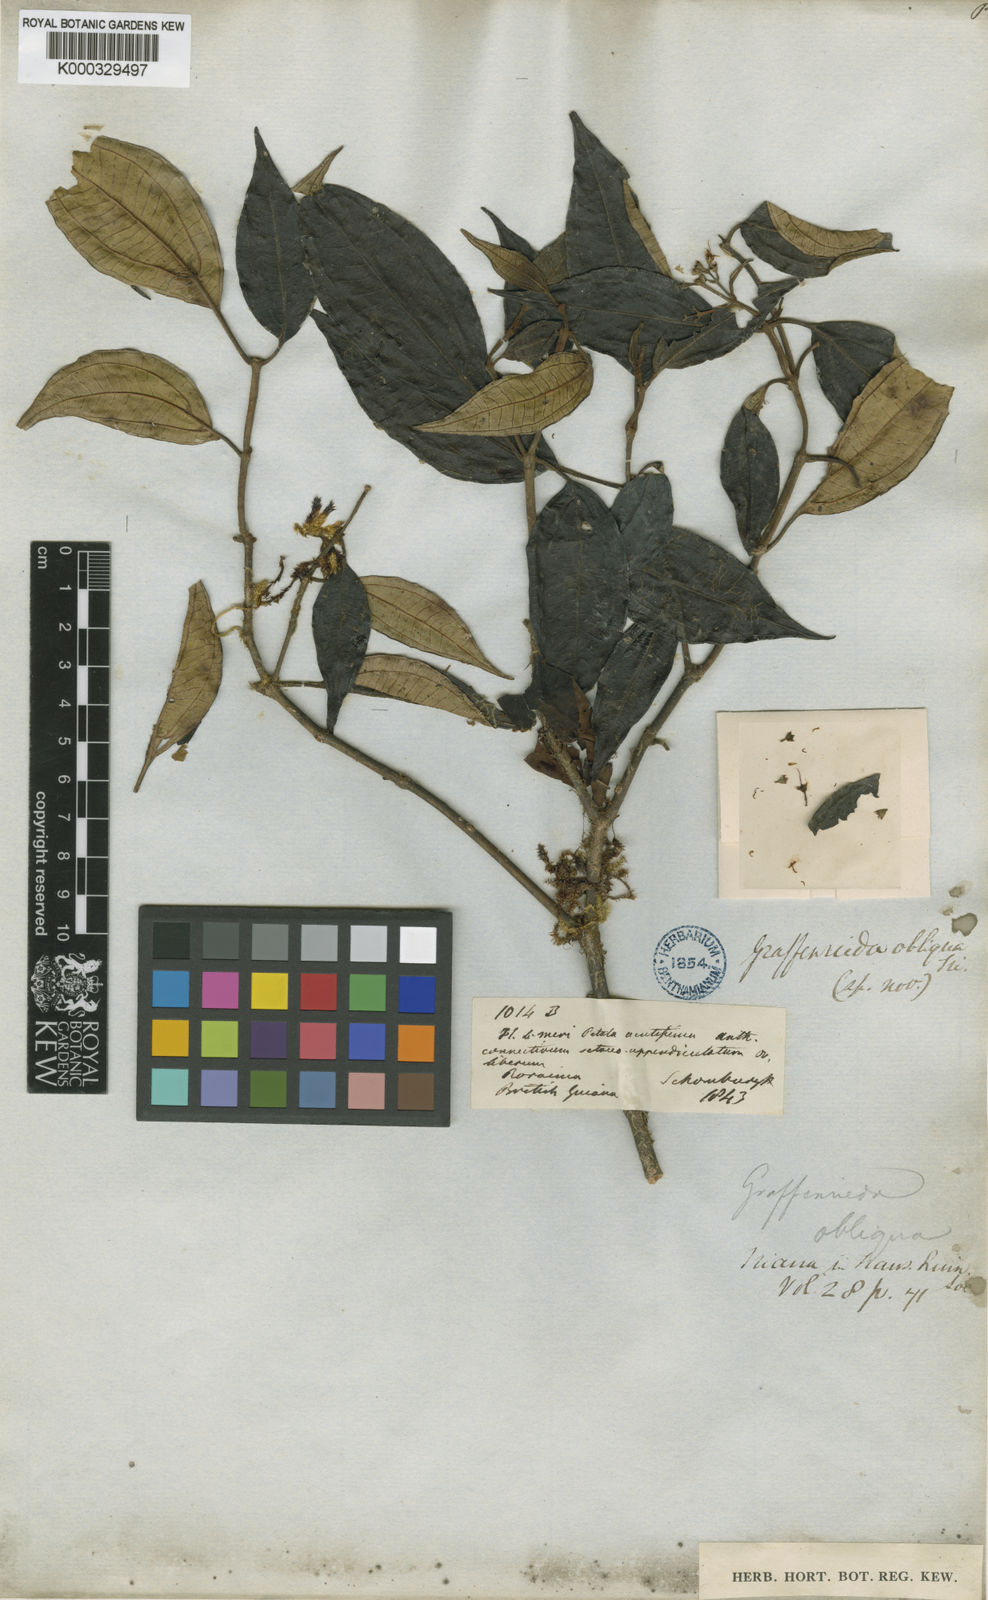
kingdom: Plantae
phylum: Tracheophyta
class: Magnoliopsida
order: Myrtales
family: Melastomataceae
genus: Graffenrieda
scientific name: Graffenrieda obliqua
